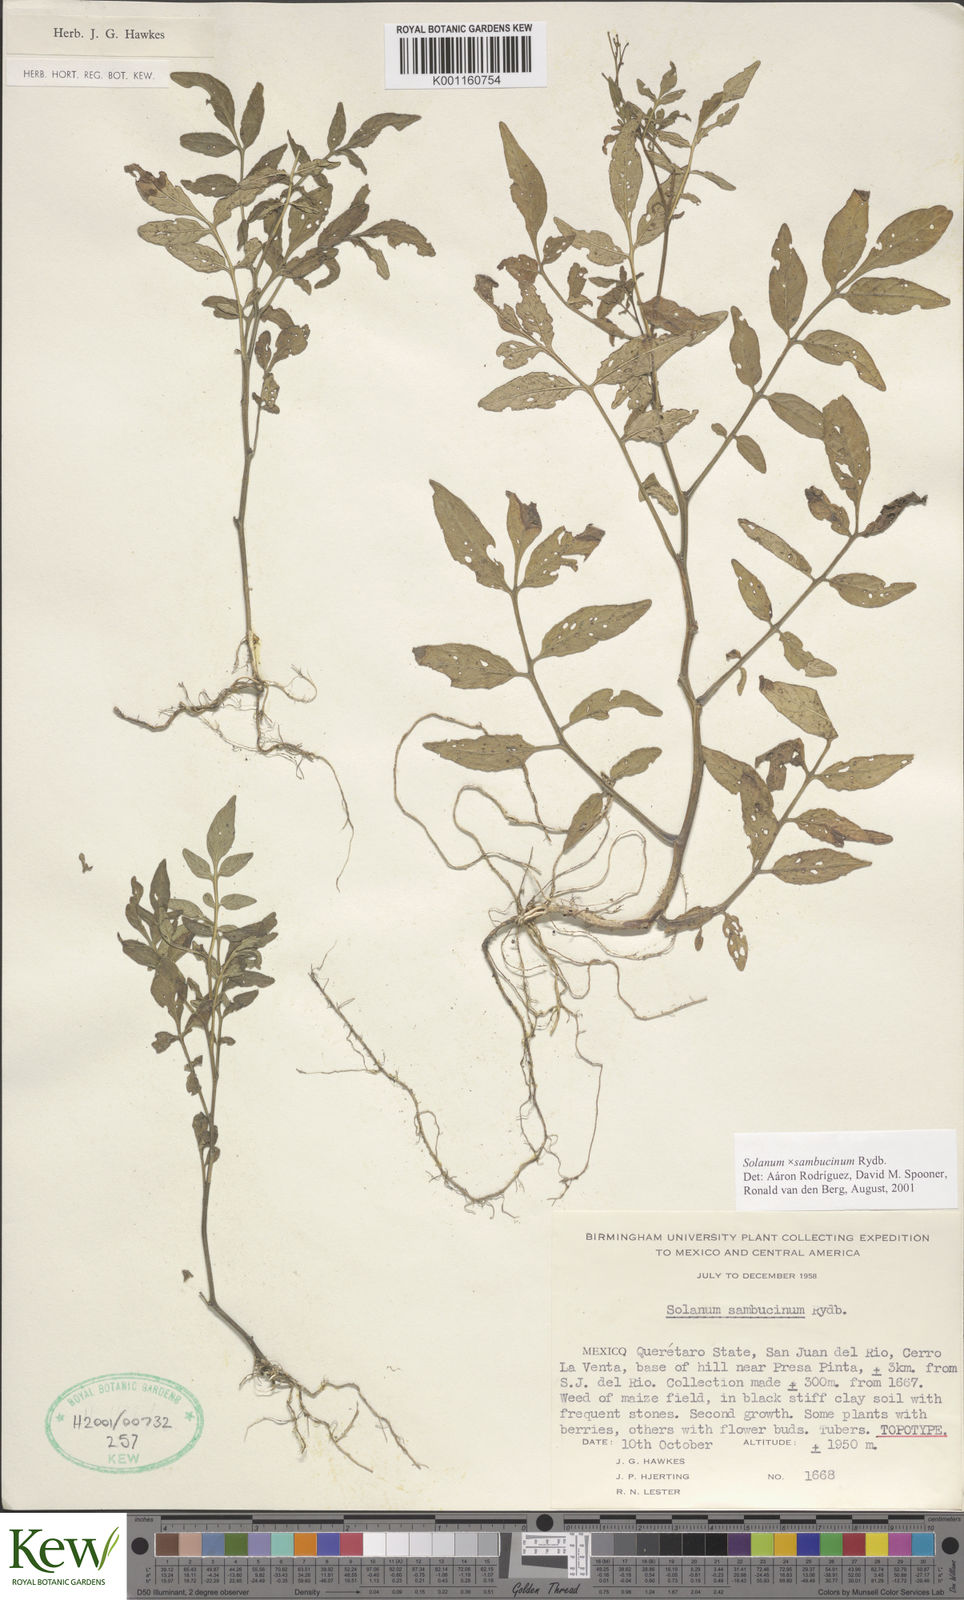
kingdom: Plantae
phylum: Tracheophyta
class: Magnoliopsida
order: Solanales
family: Solanaceae
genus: Solanum
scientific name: Solanum sambucinum
